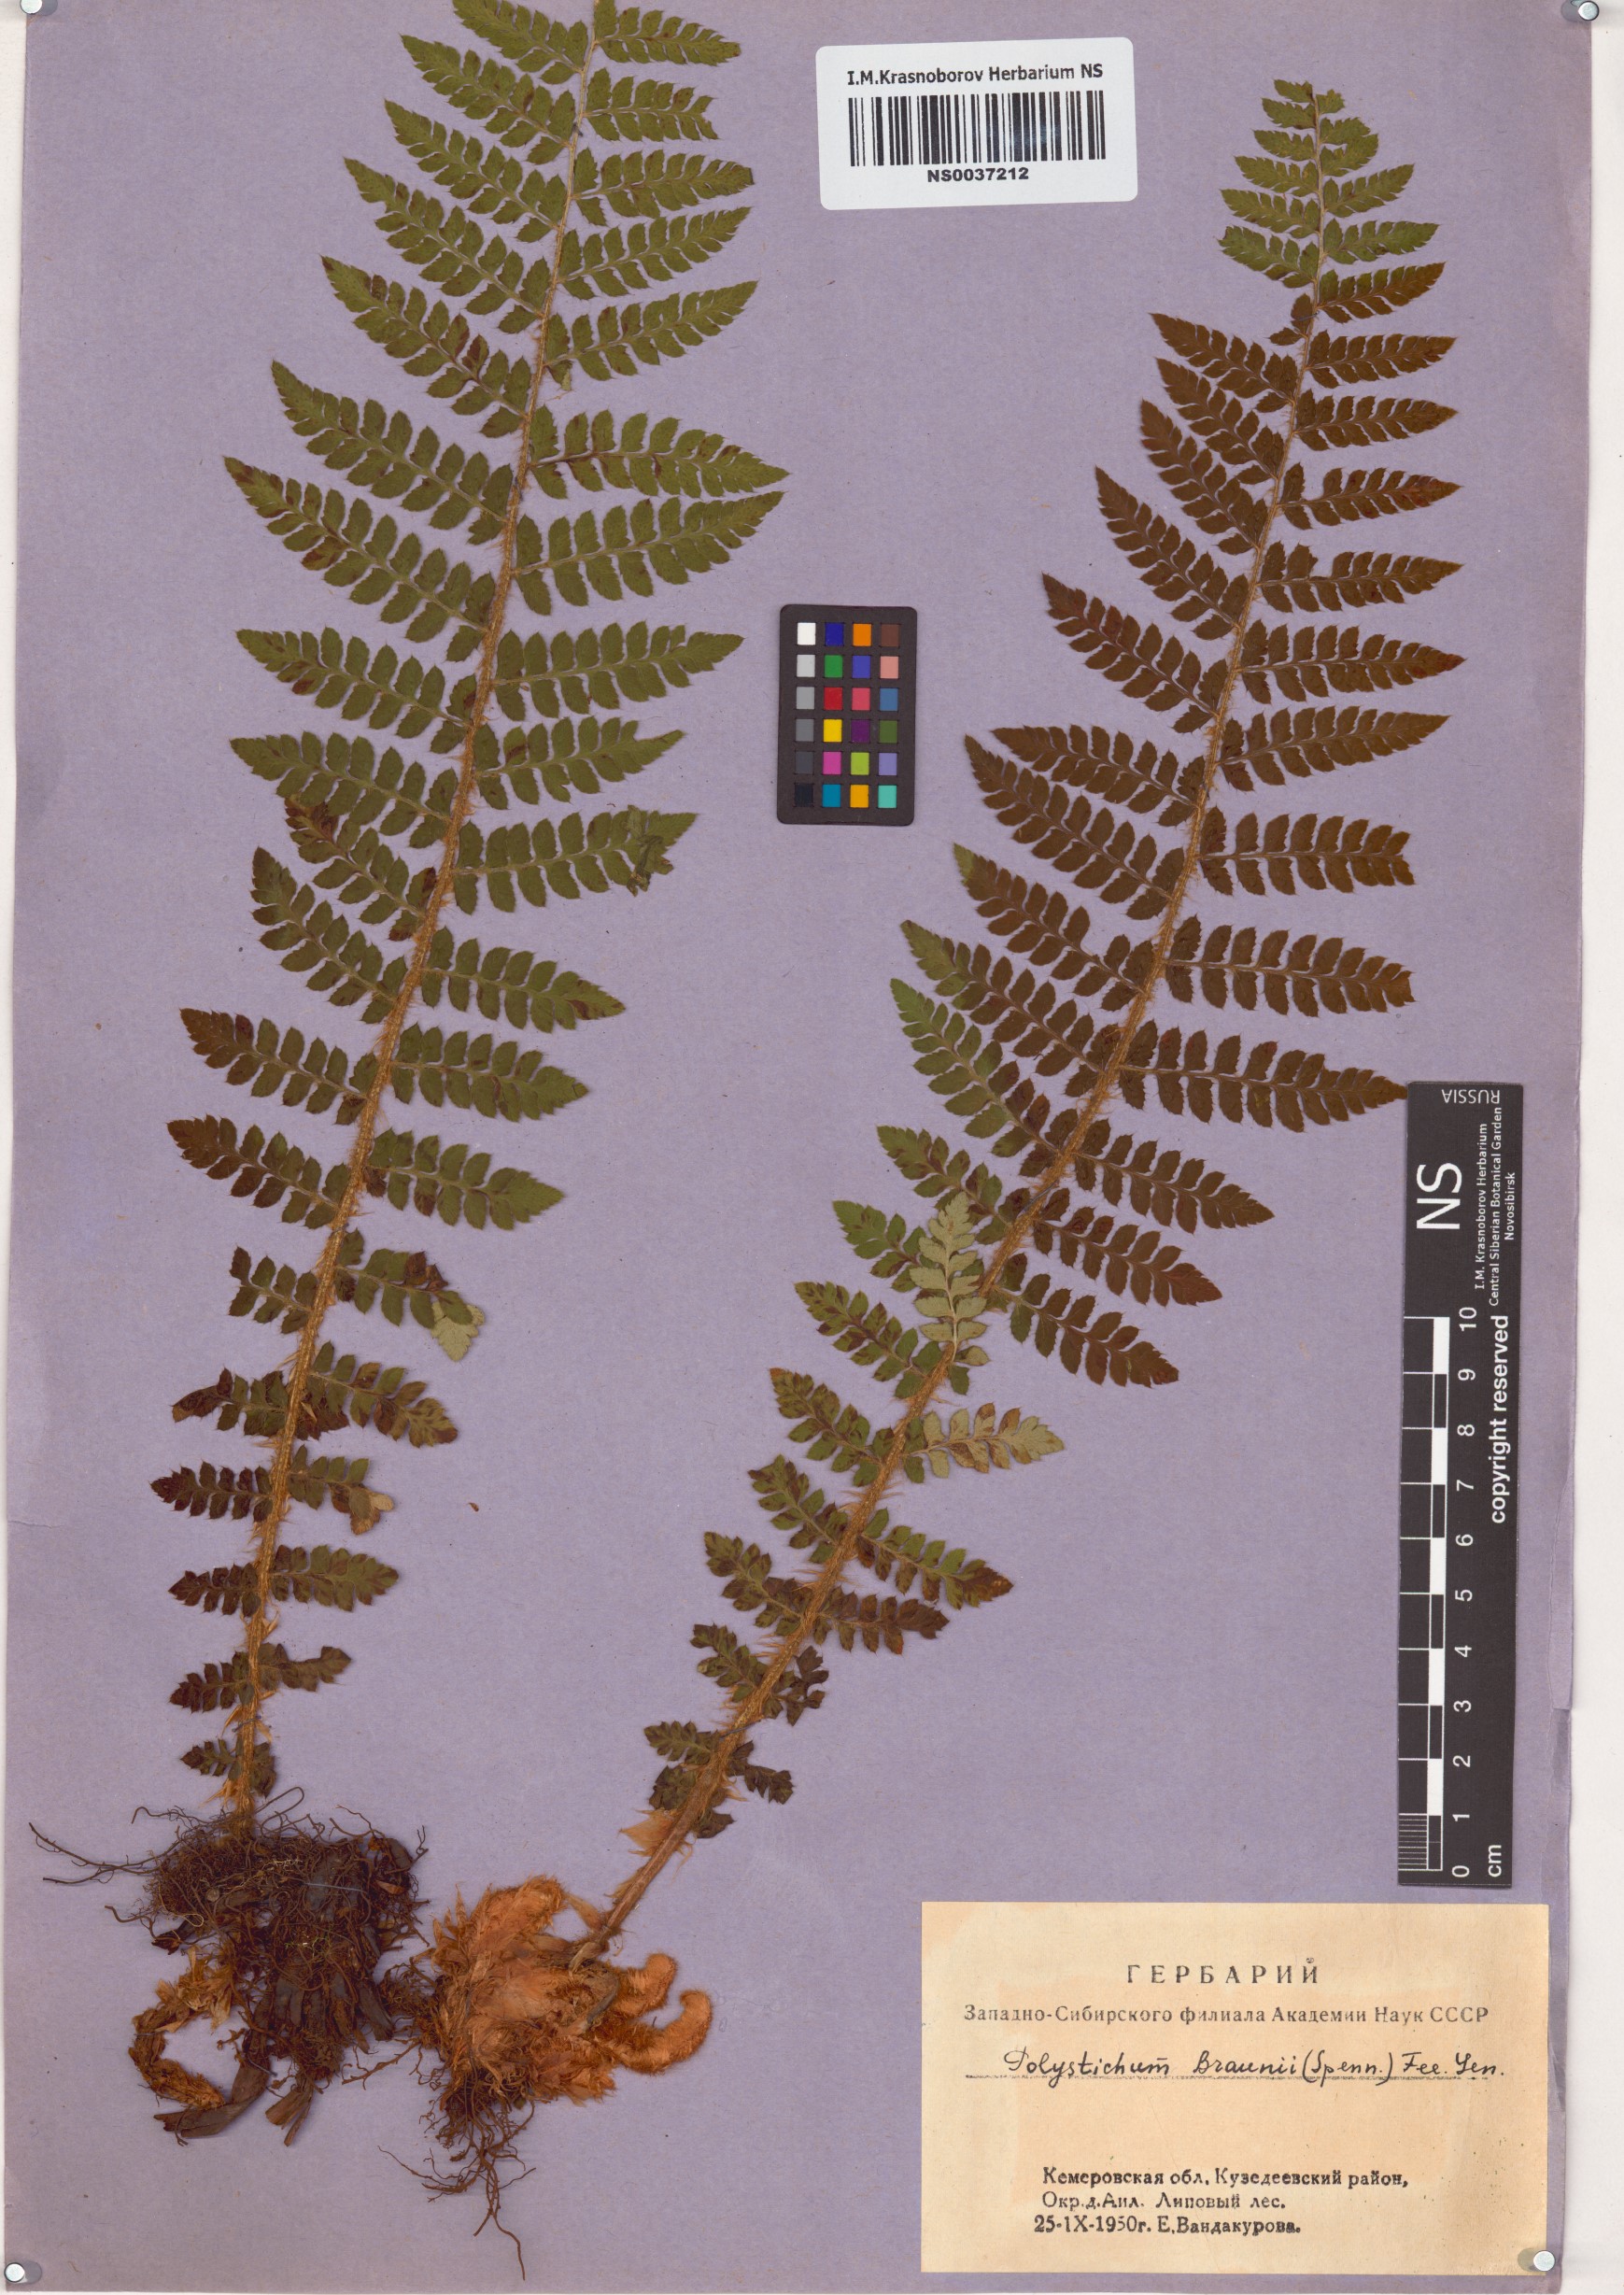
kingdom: Plantae
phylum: Tracheophyta
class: Polypodiopsida
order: Polypodiales
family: Dryopteridaceae
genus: Polystichum
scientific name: Polystichum braunii
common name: Braun's holly fern
